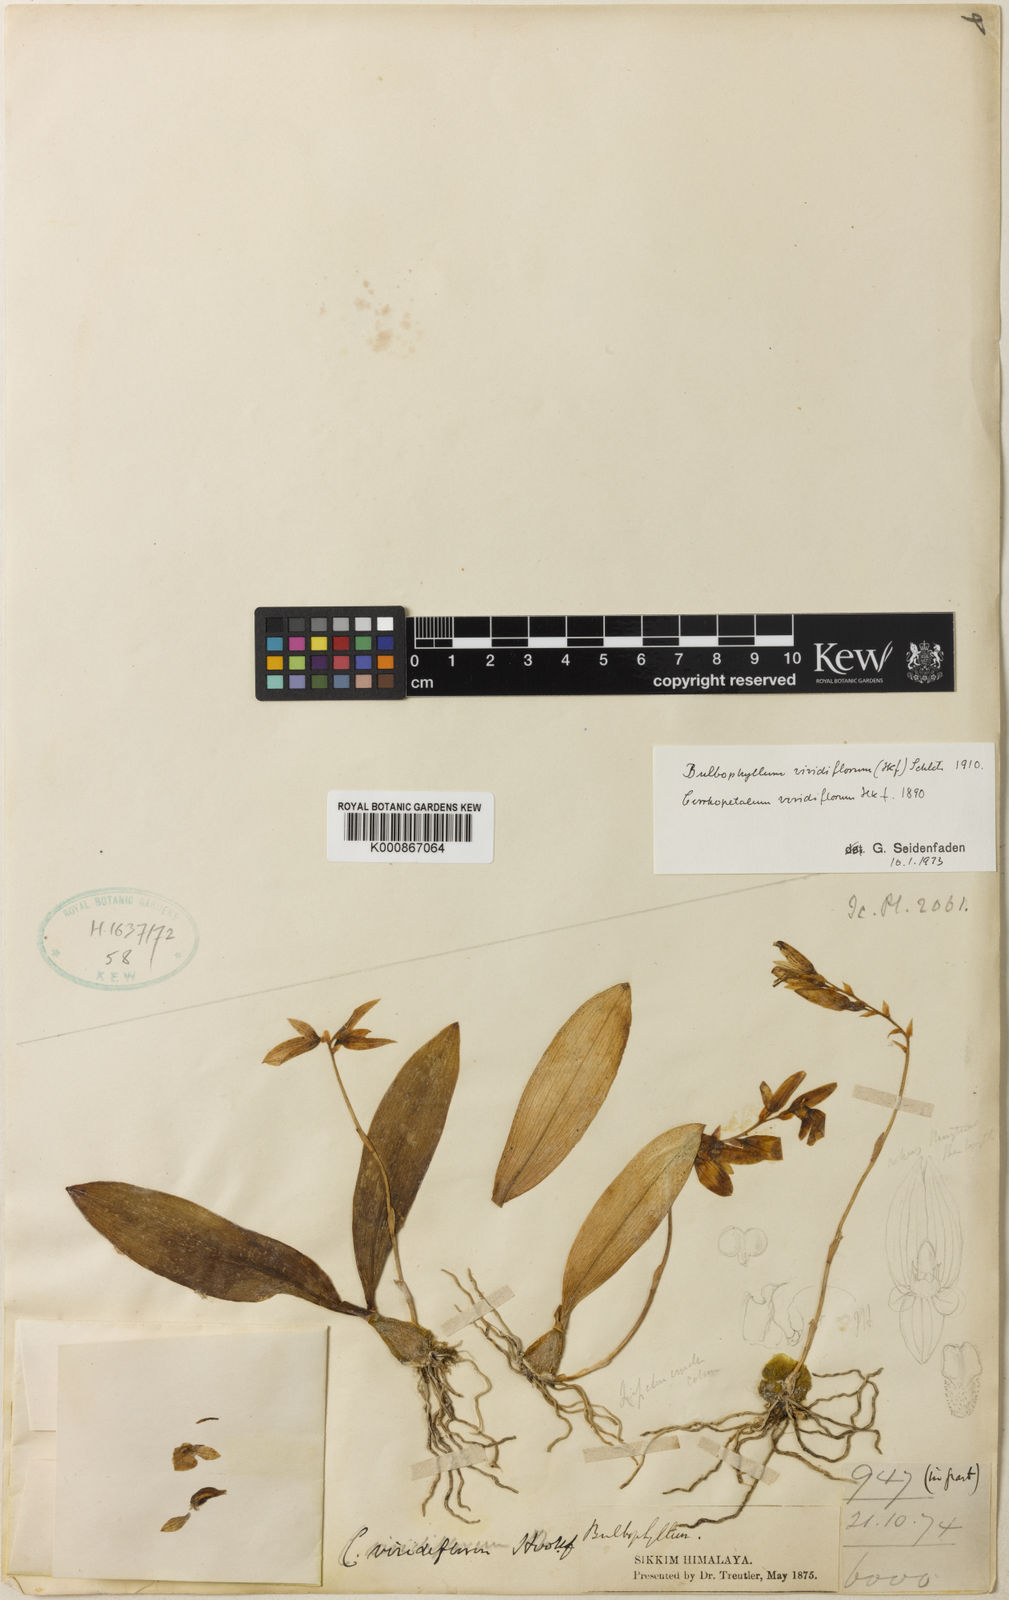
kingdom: Plantae
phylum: Tracheophyta
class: Liliopsida
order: Asparagales
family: Orchidaceae
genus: Bulbophyllum
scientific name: Bulbophyllum viridiflorum
